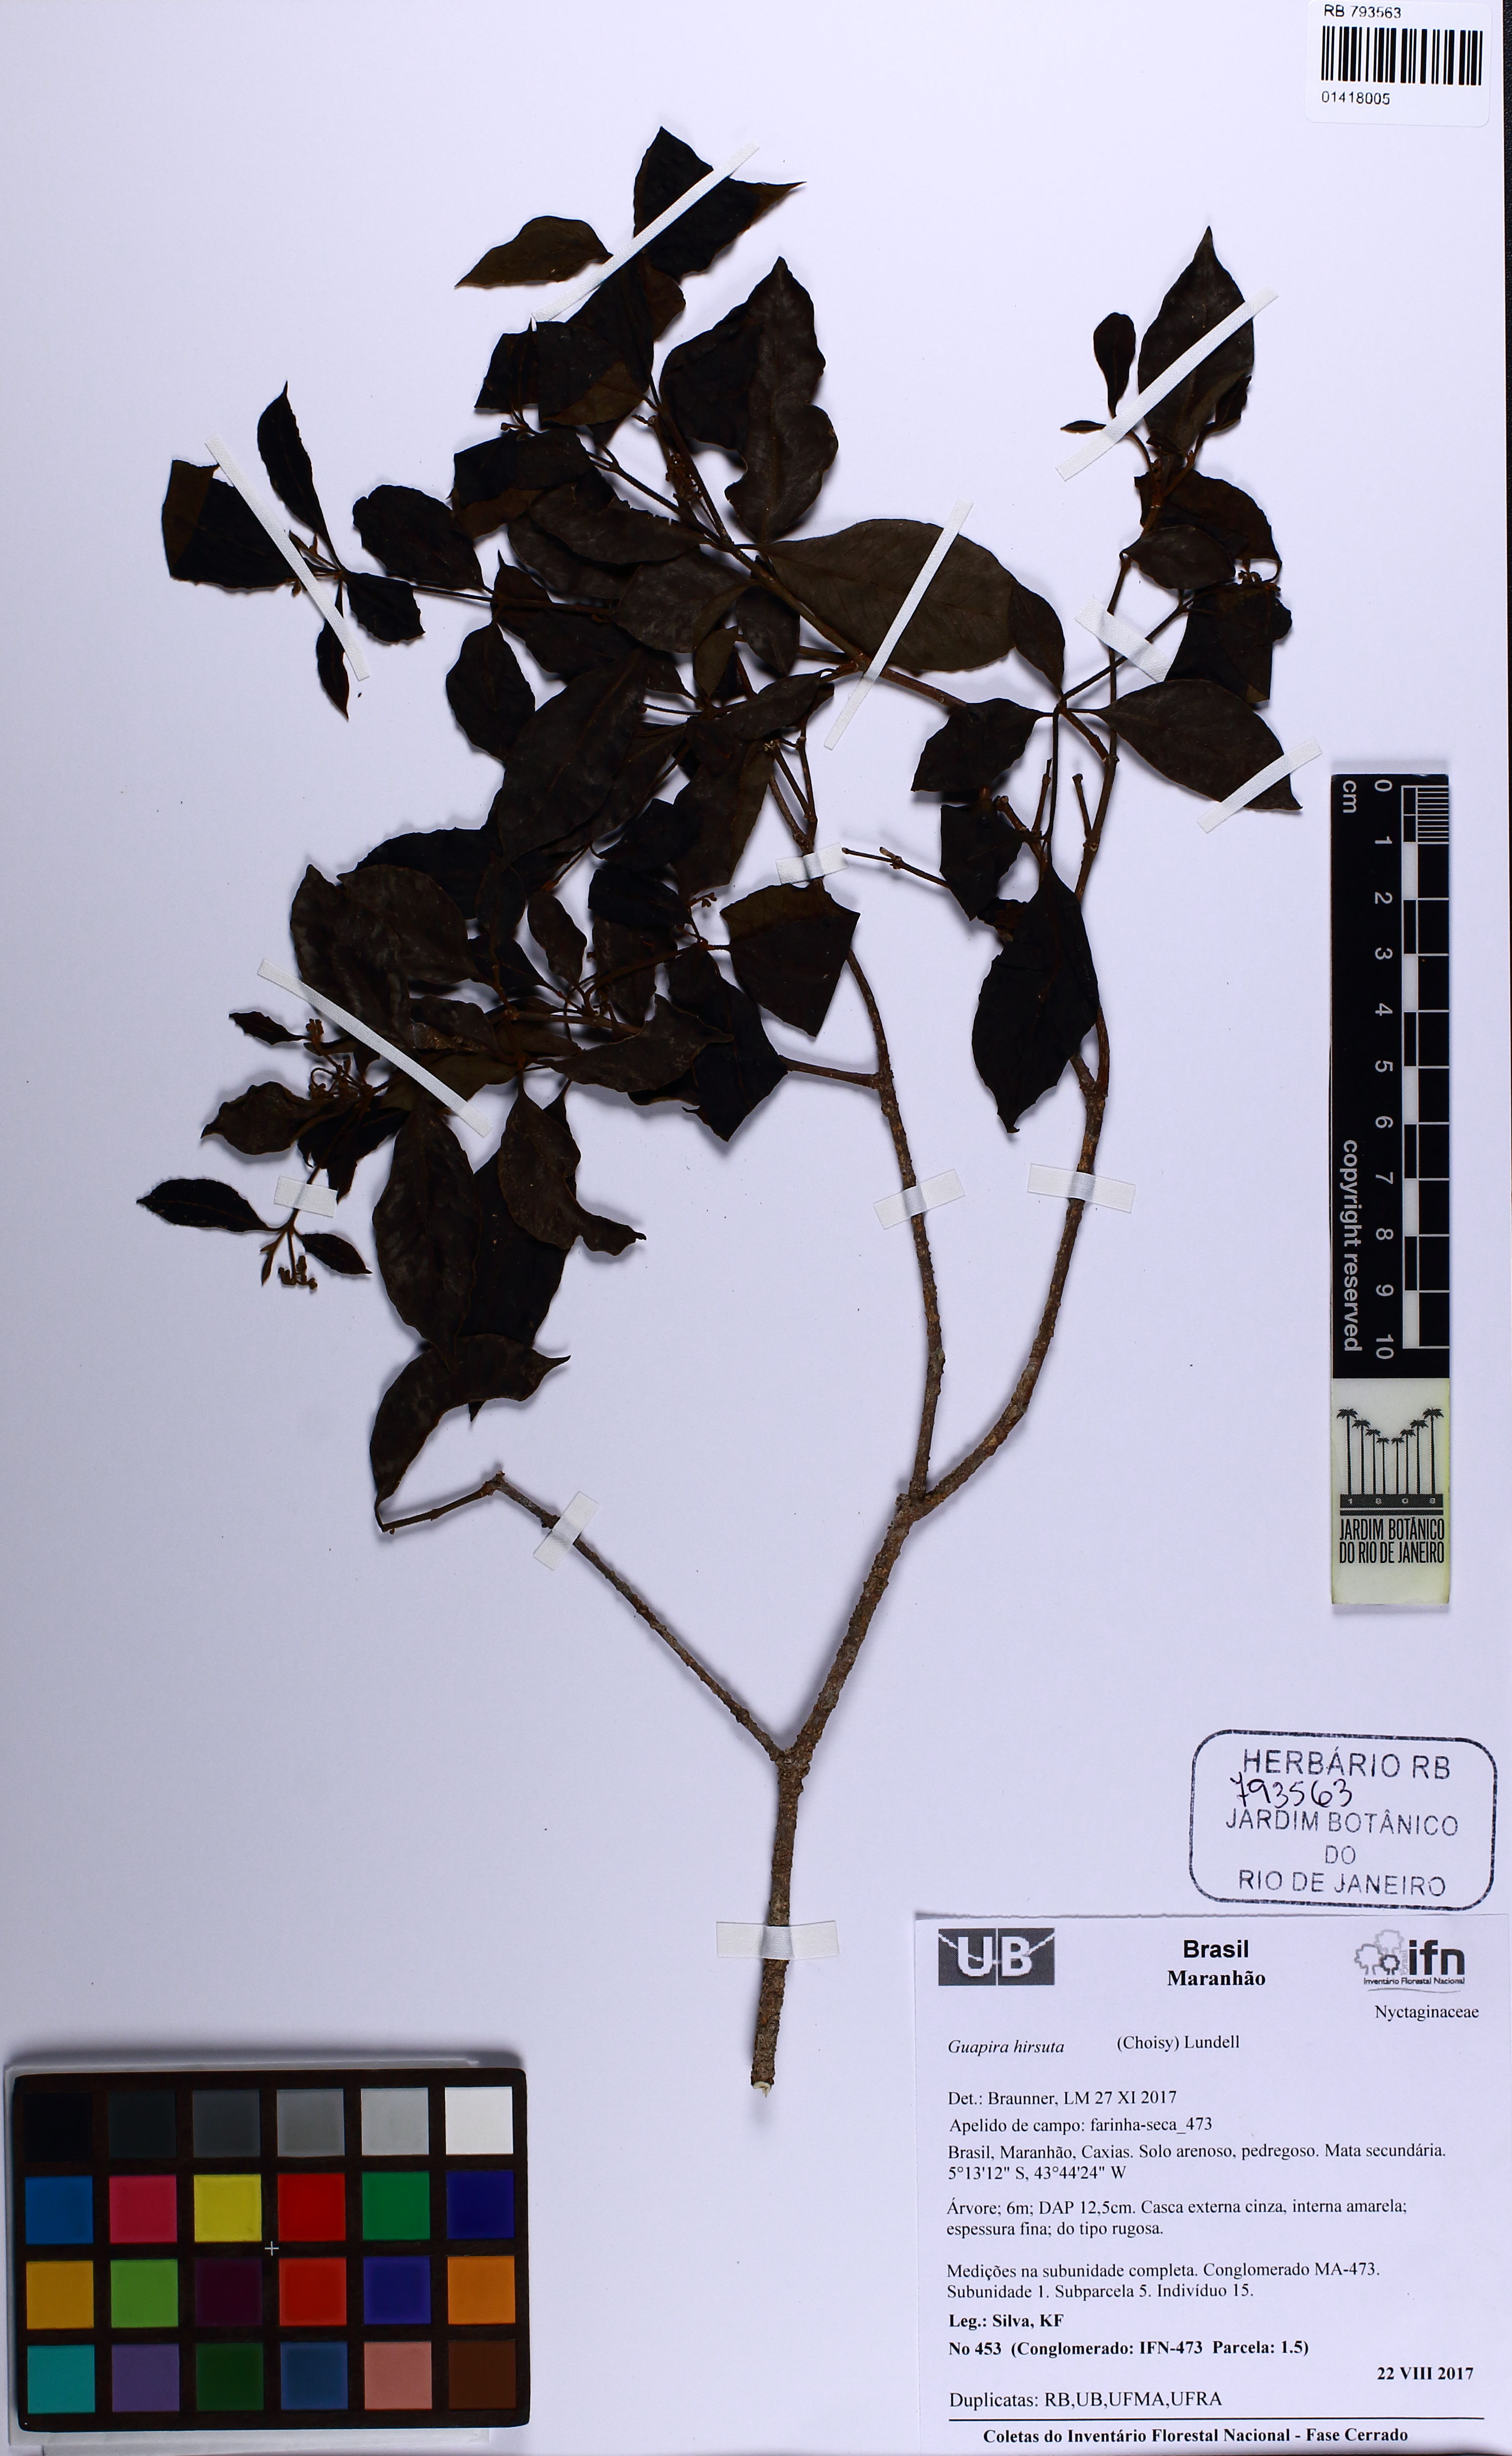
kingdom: Plantae
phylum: Tracheophyta
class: Magnoliopsida
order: Caryophyllales
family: Nyctaginaceae
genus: Guapira
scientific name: Guapira hirsuta
